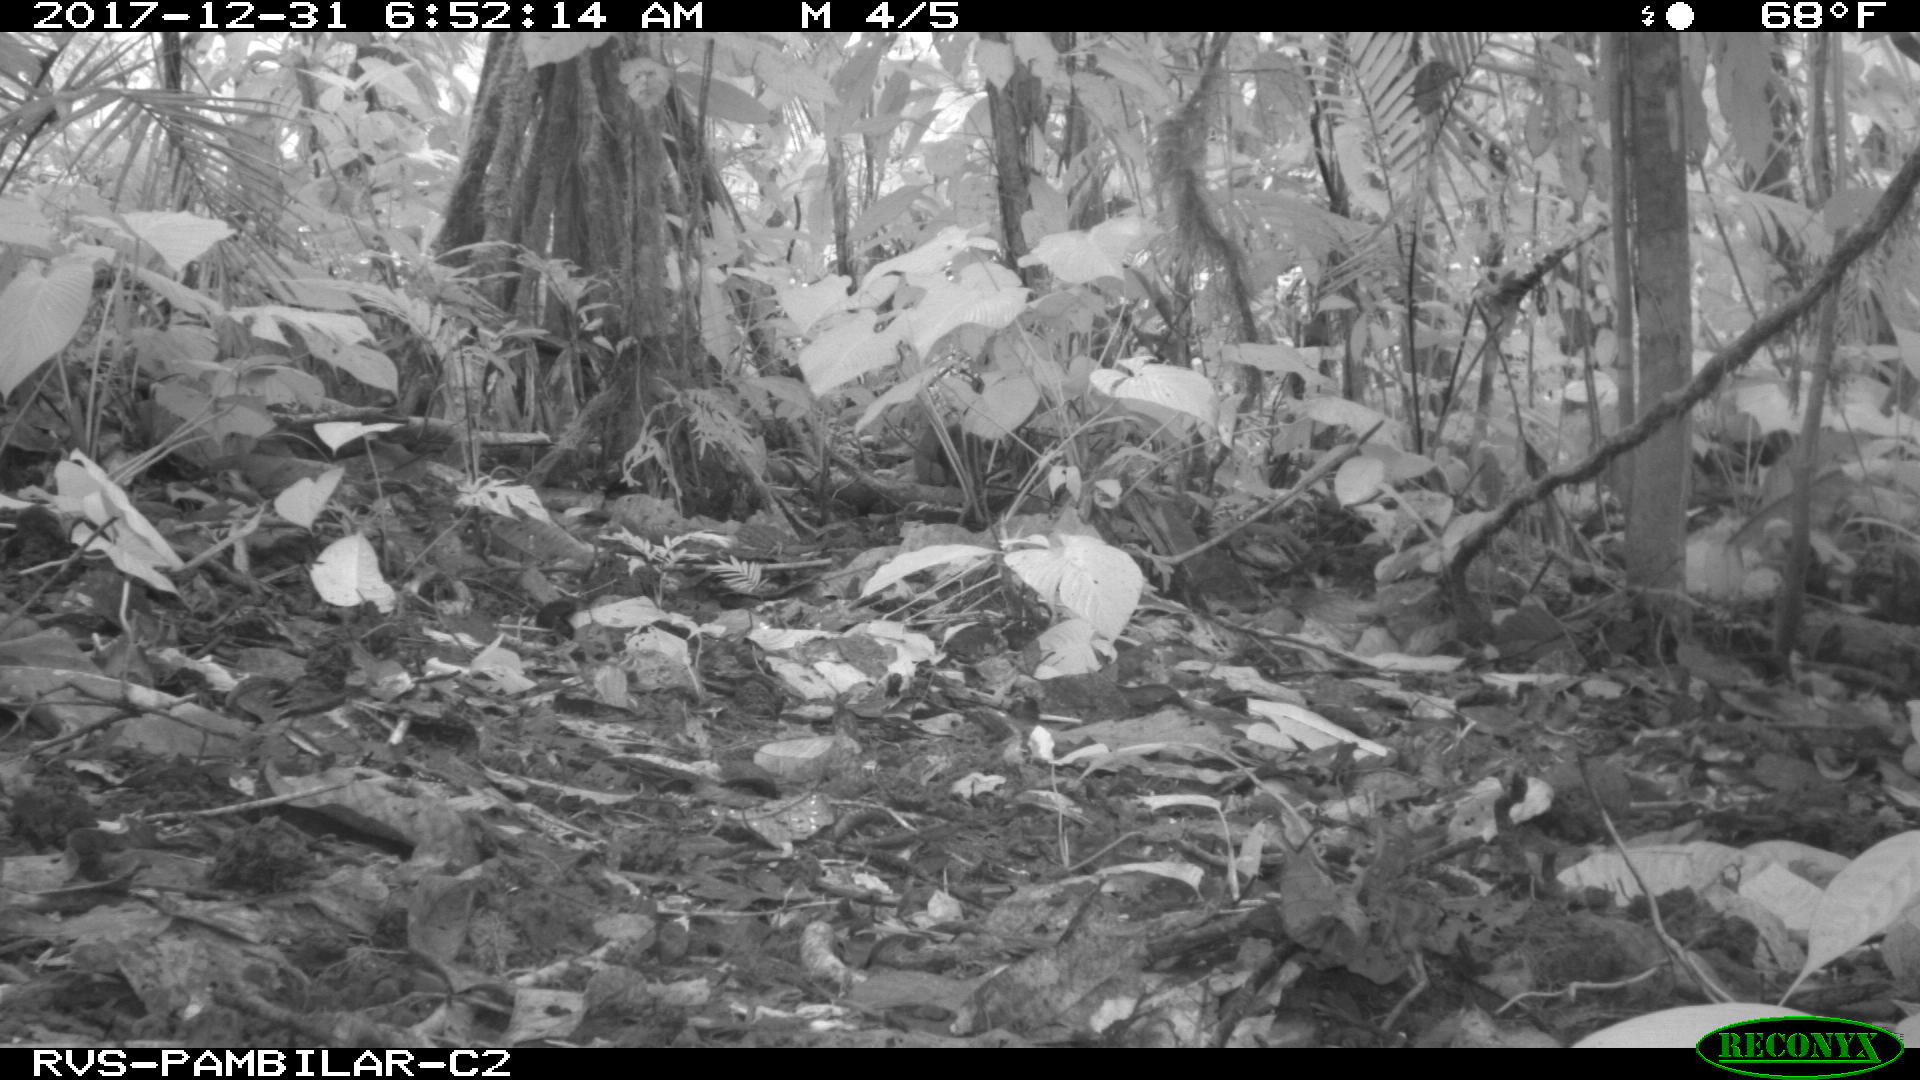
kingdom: Animalia
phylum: Chordata
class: Mammalia
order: Rodentia
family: Dasyproctidae
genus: Dasyprocta
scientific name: Dasyprocta punctata
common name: Central american agouti
